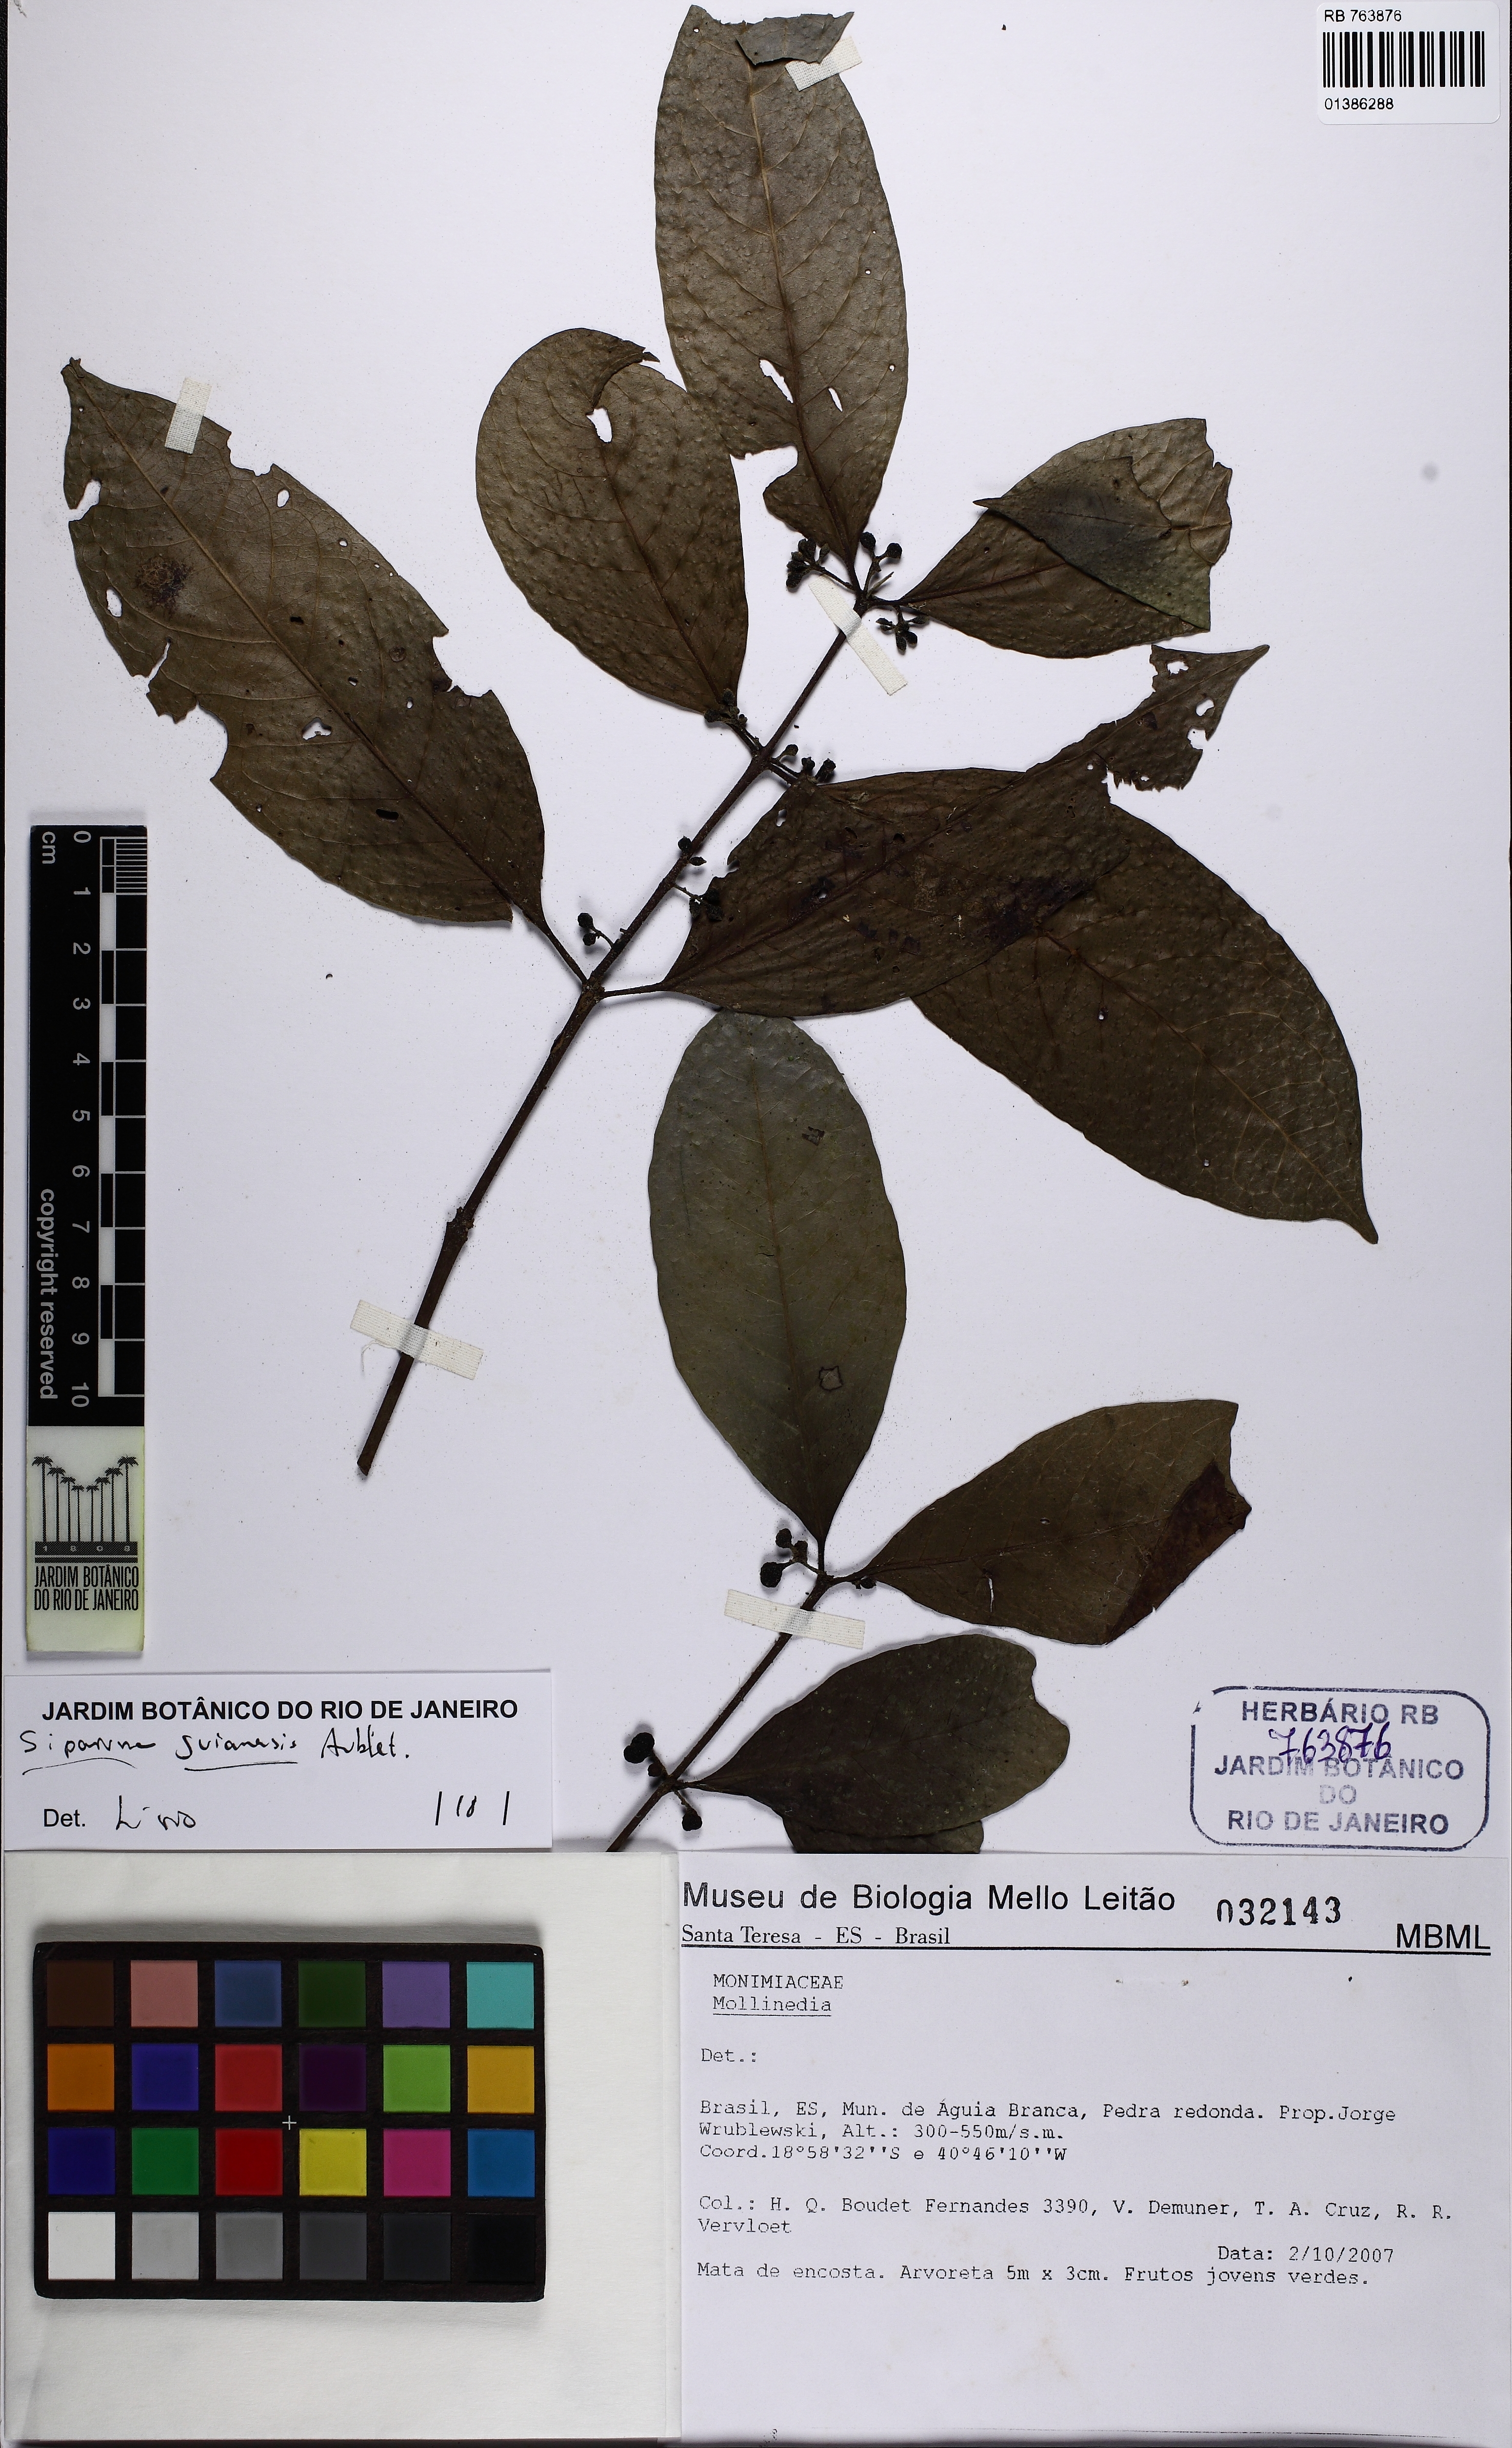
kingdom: Plantae
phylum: Tracheophyta
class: Magnoliopsida
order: Laurales
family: Siparunaceae
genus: Siparuna
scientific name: Siparuna guianensis
